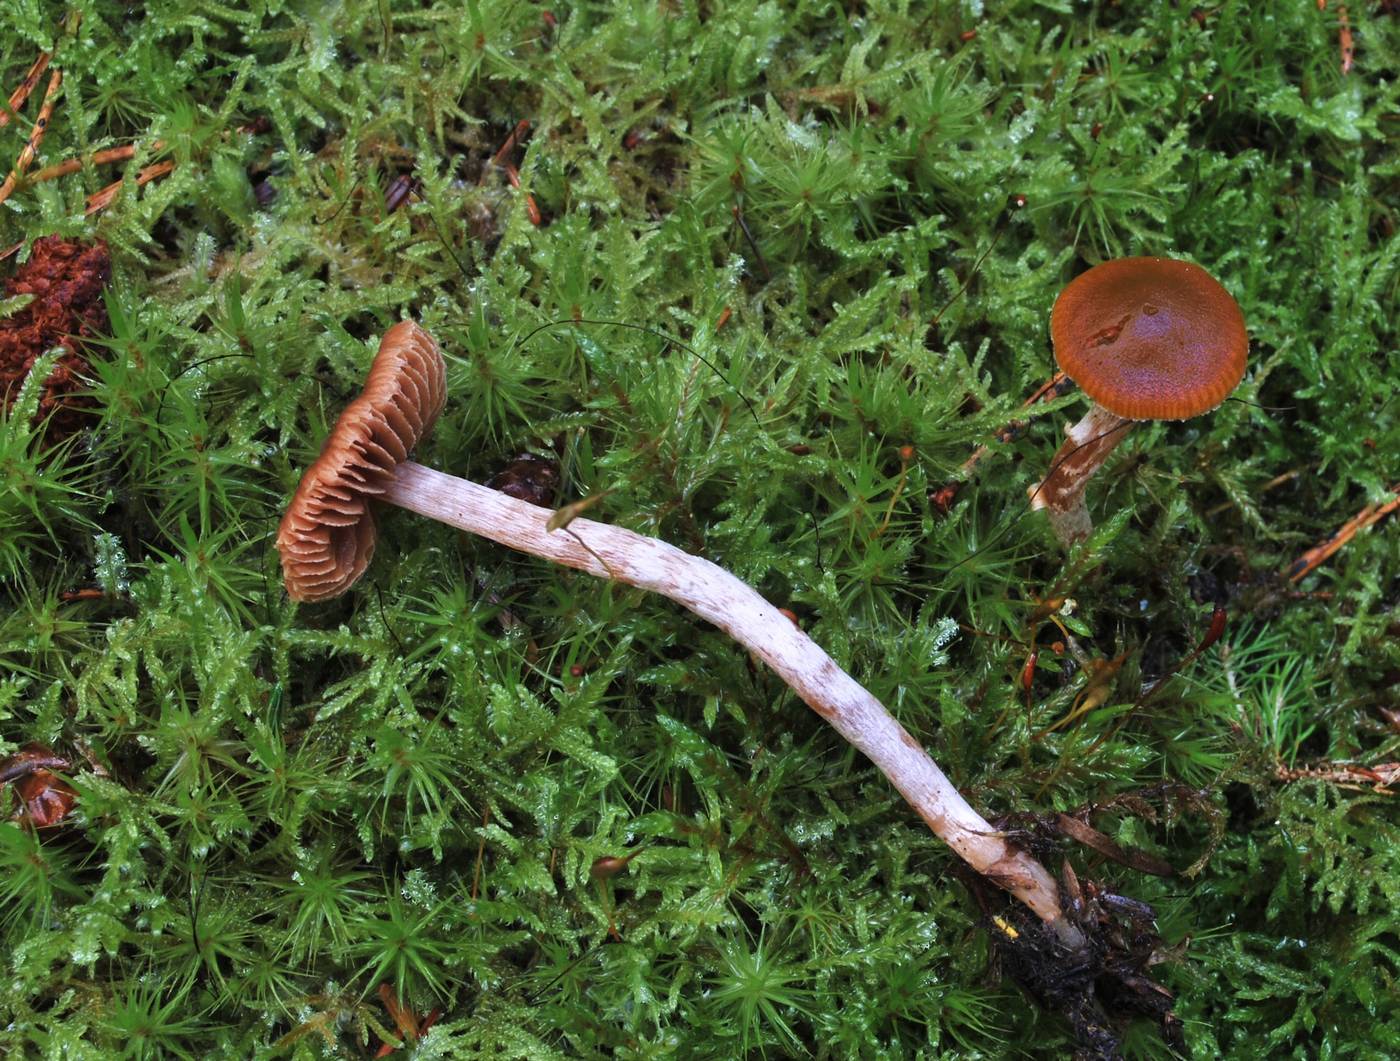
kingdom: Fungi
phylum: Basidiomycota
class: Agaricomycetes
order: Agaricales
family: Cortinariaceae
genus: Cortinarius
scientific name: Cortinarius vernus
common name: sommer-slørhat
